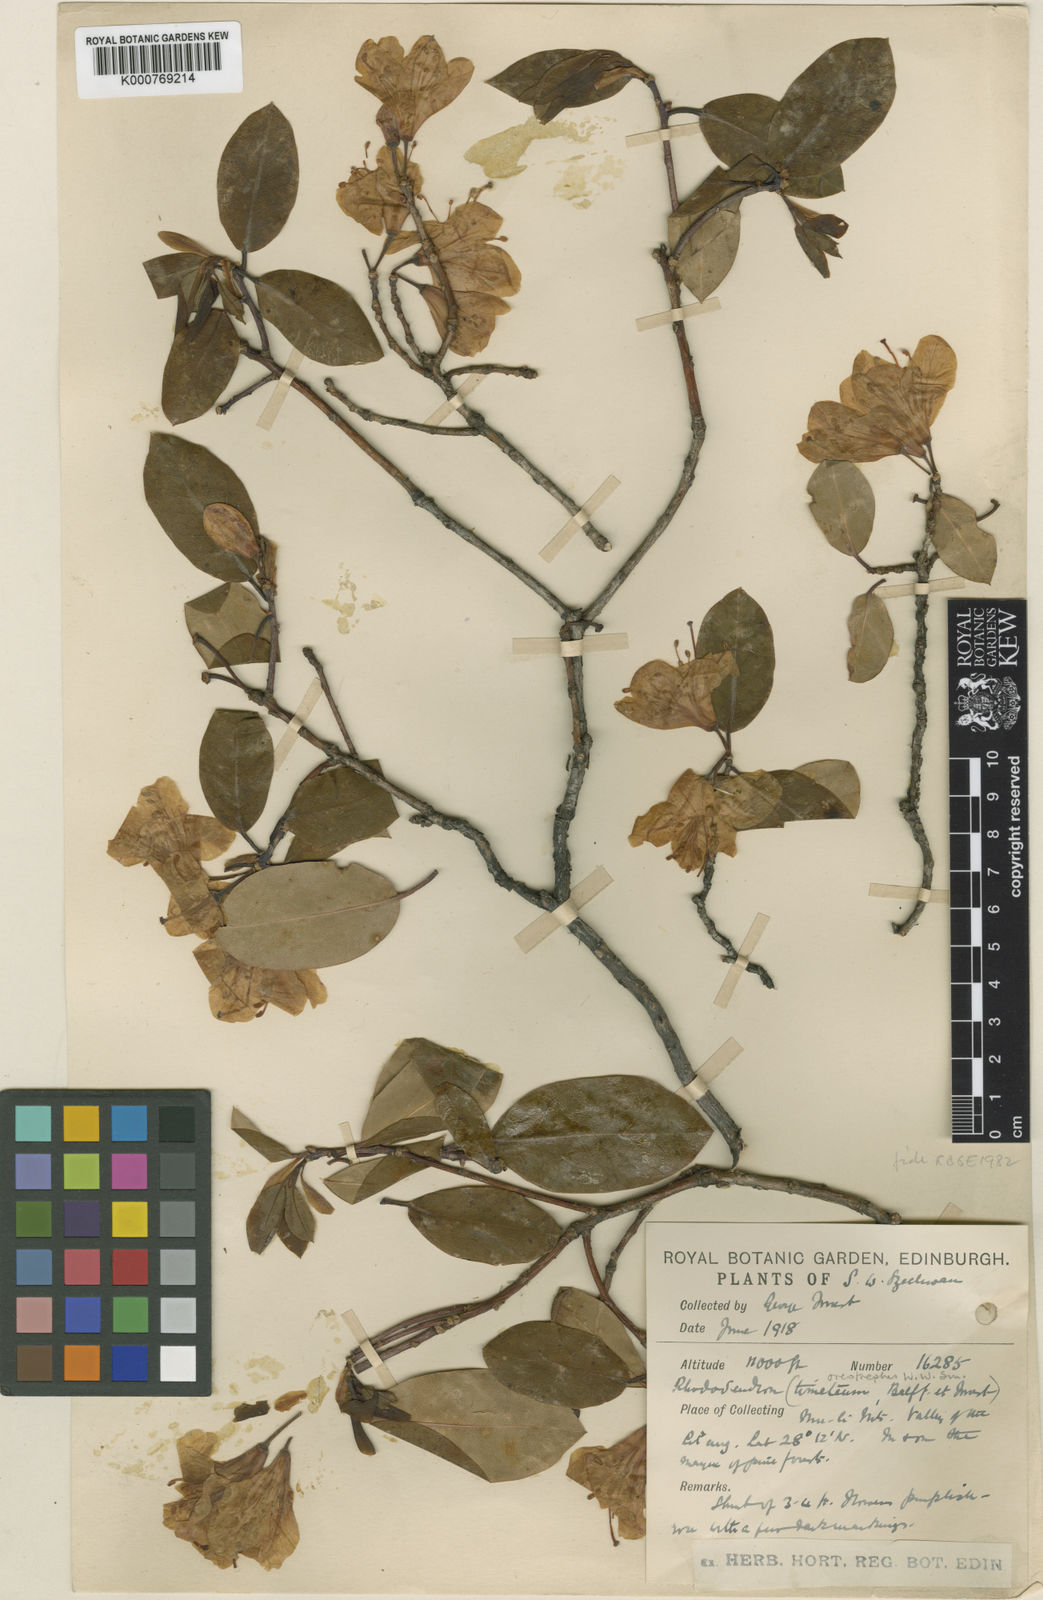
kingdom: Plantae
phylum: Tracheophyta
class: Magnoliopsida
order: Ericales
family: Ericaceae
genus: Rhododendron
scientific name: Rhododendron oreotrephes
